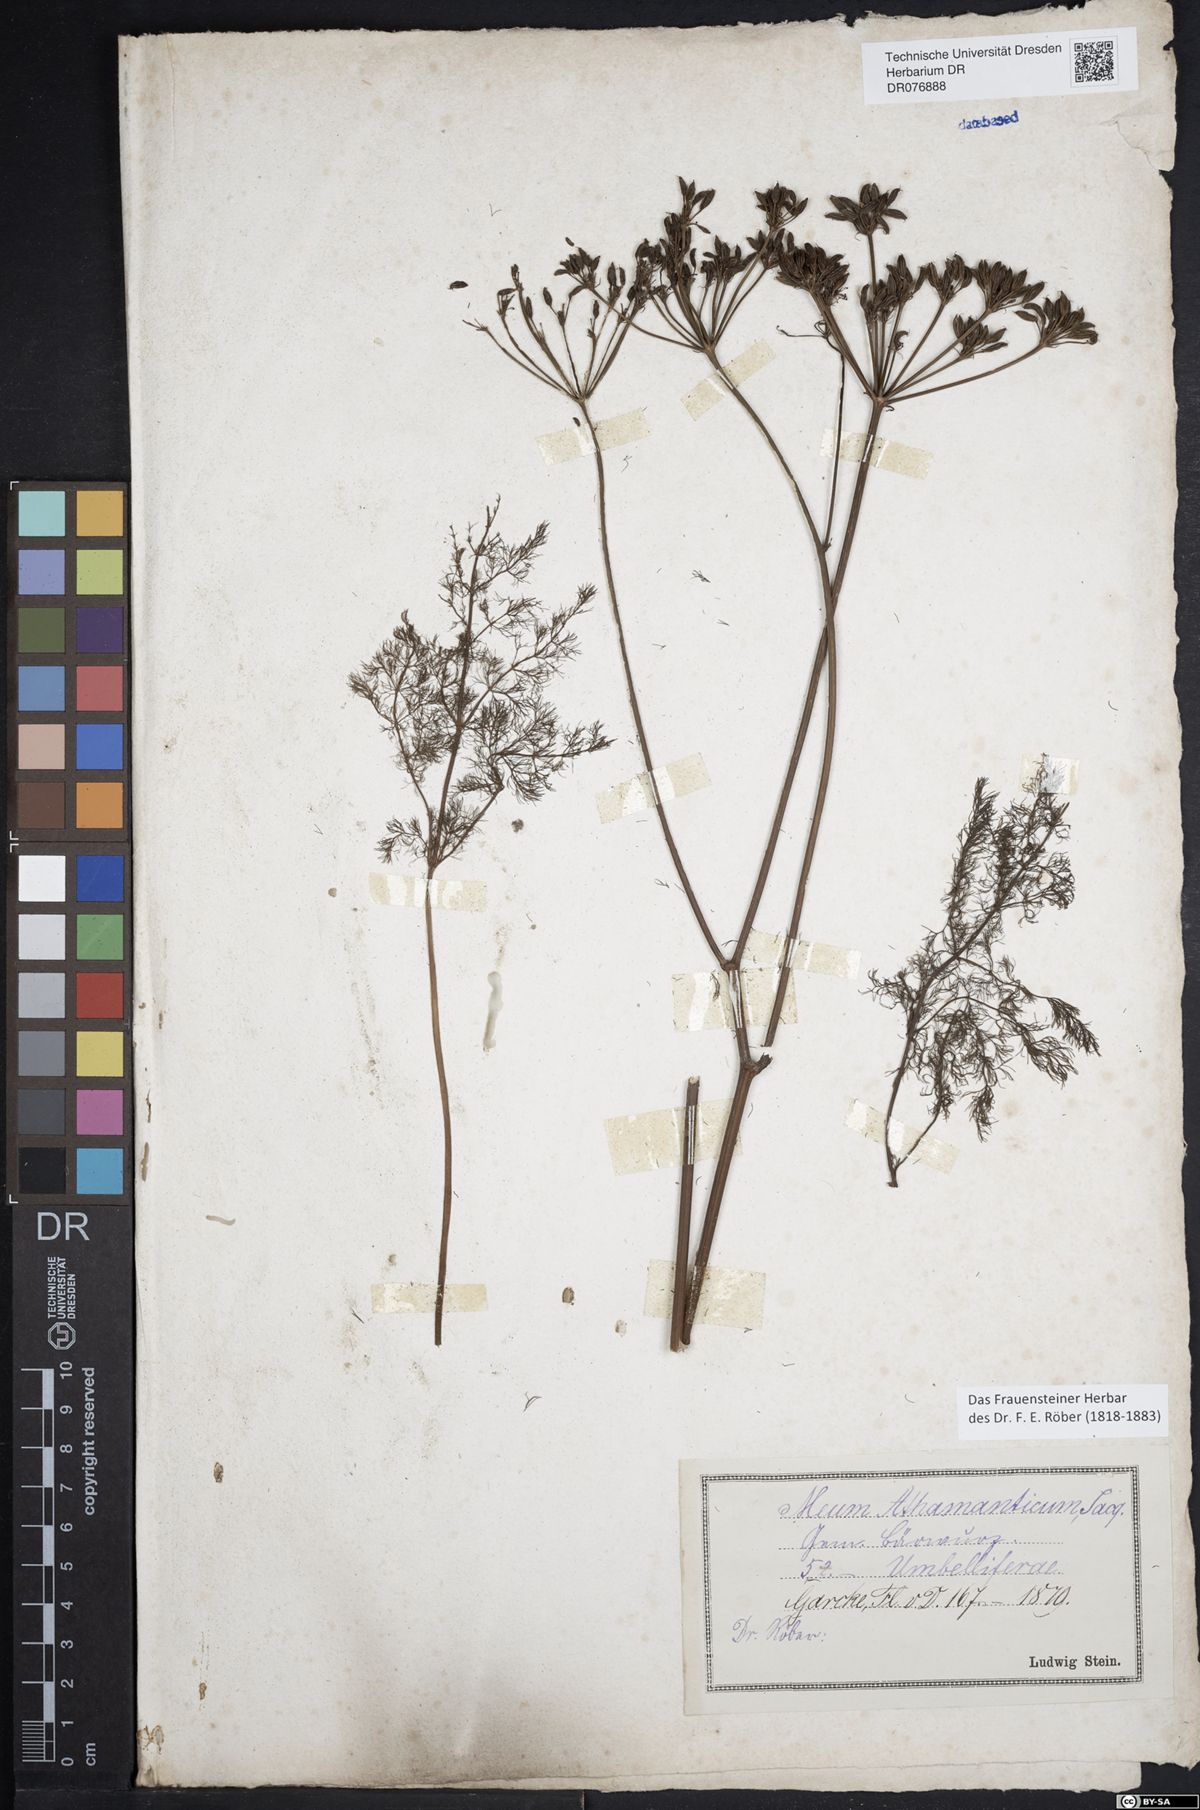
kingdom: Plantae
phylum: Tracheophyta
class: Magnoliopsida
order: Apiales
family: Apiaceae
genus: Meum
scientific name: Meum athamanticum
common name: Spignel
